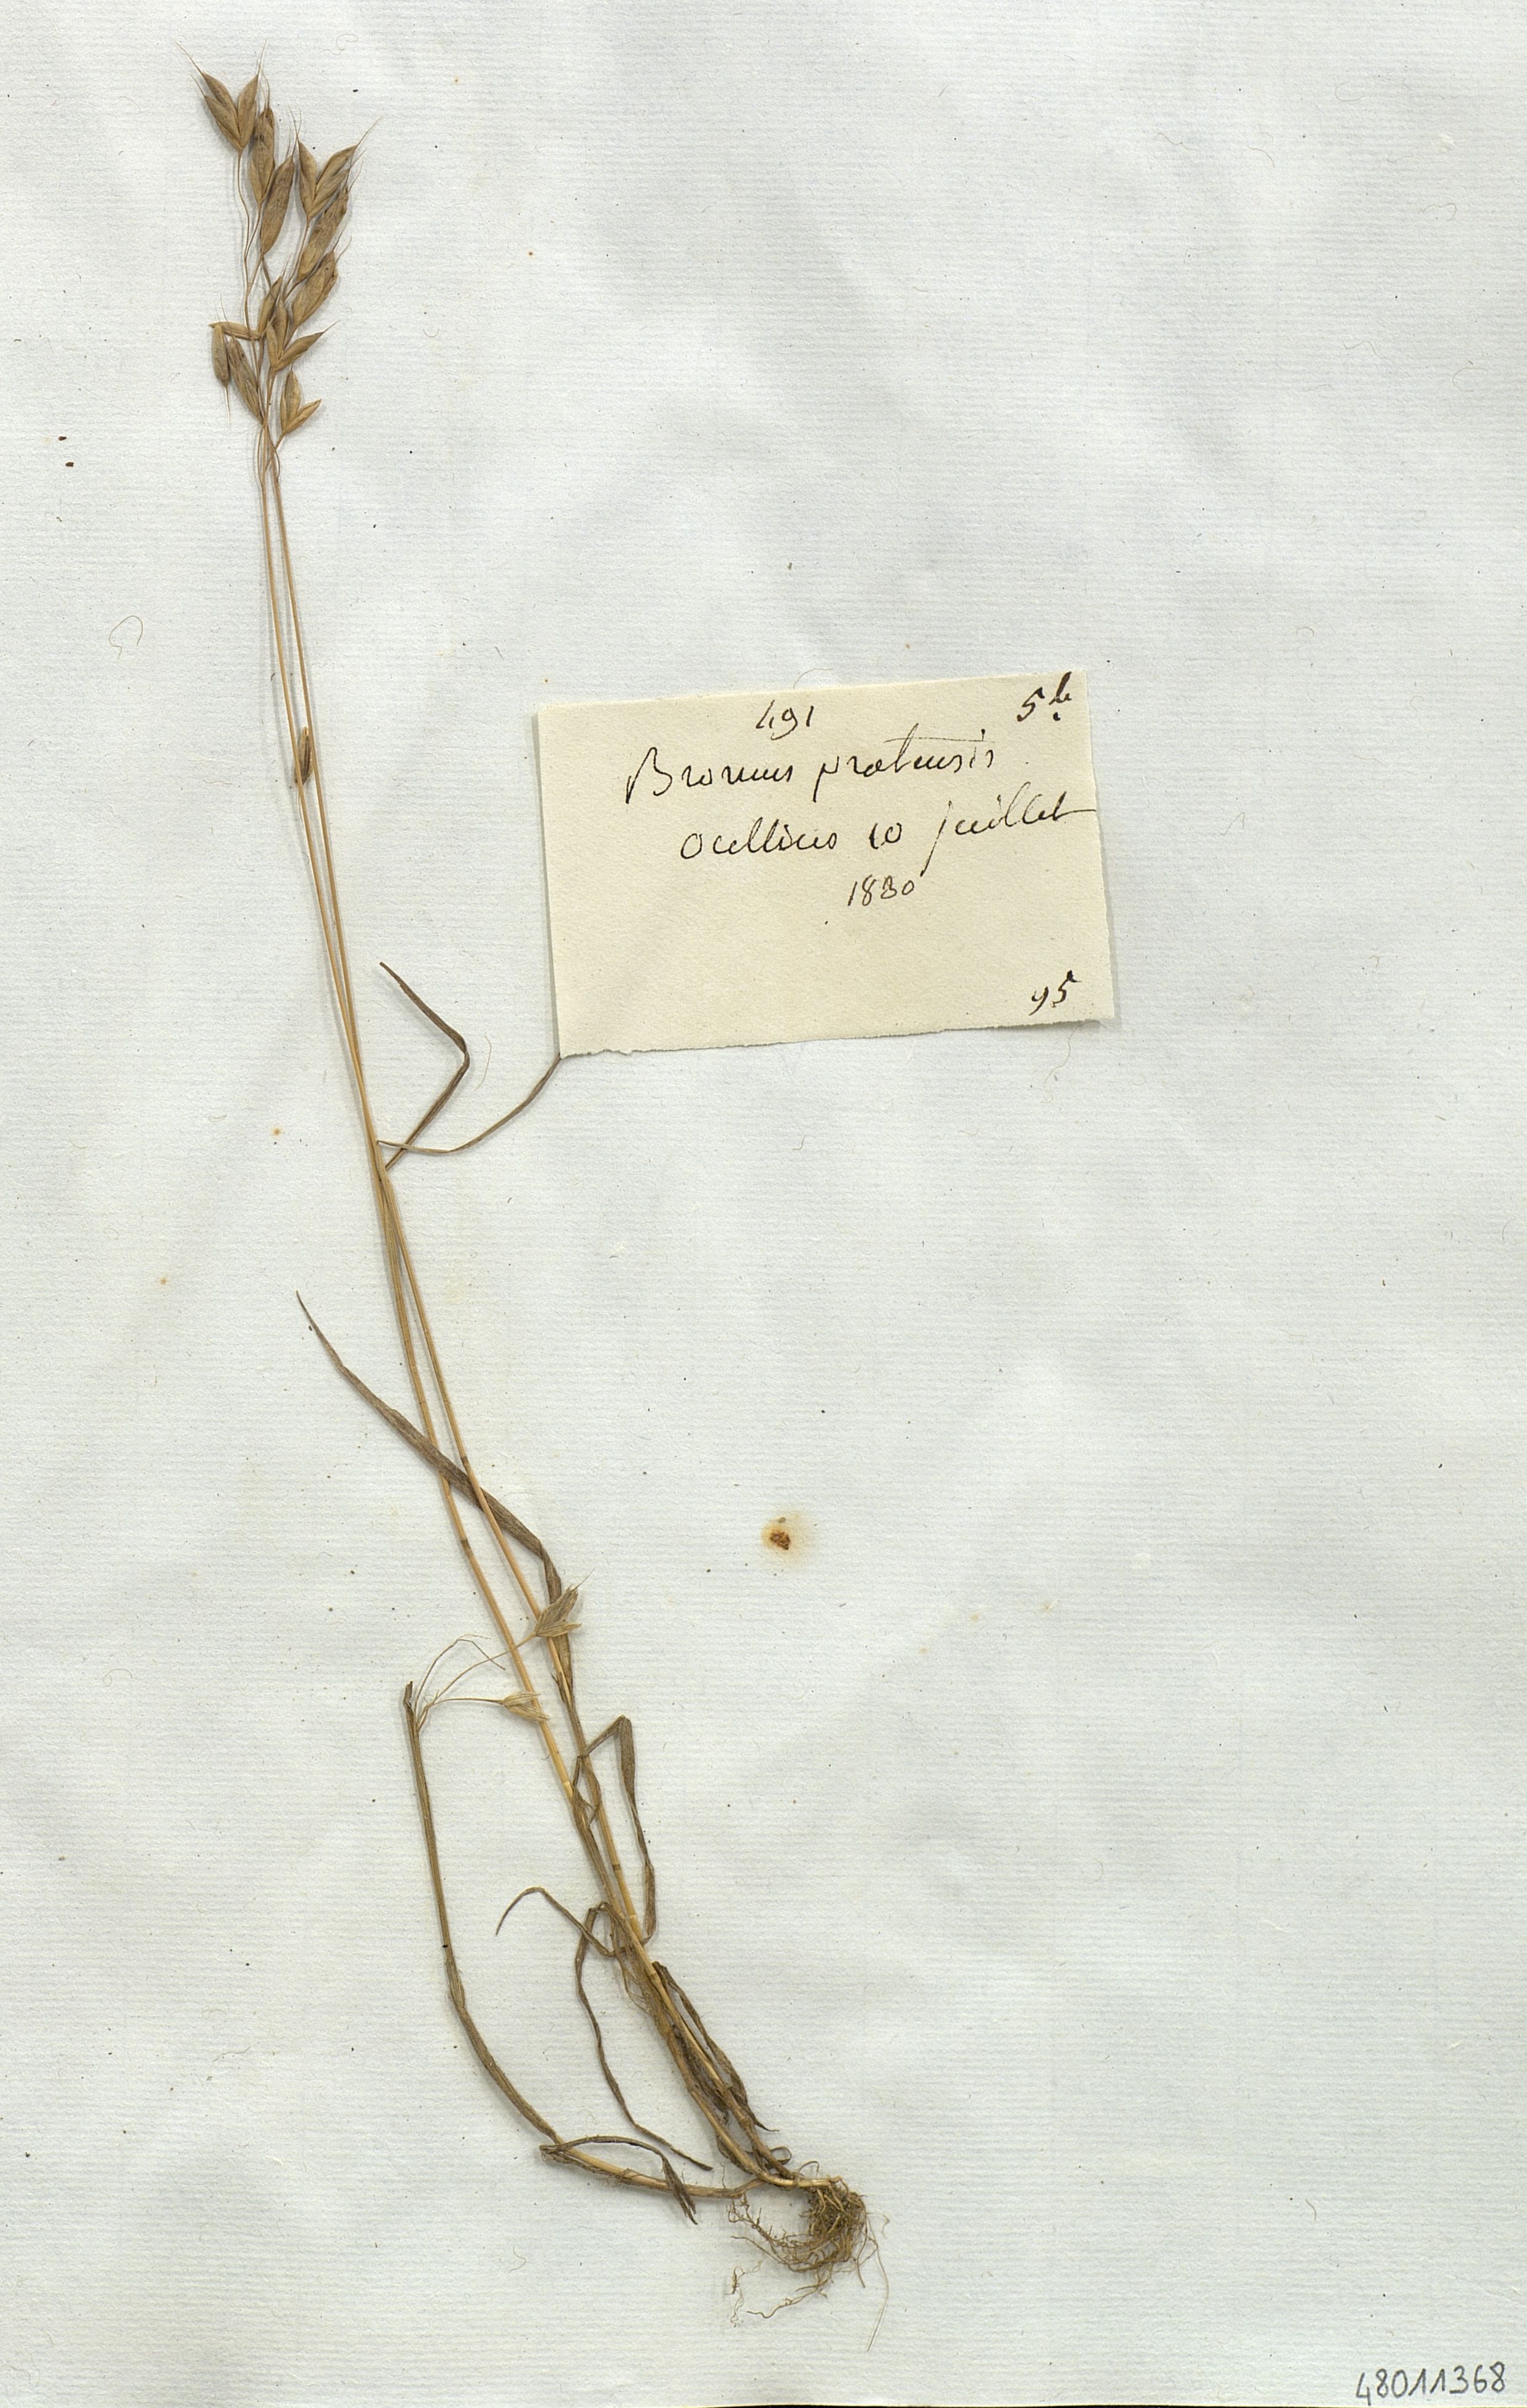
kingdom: Plantae
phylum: Tracheophyta
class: Liliopsida
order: Poales
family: Poaceae
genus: Bromus
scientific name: Bromus
